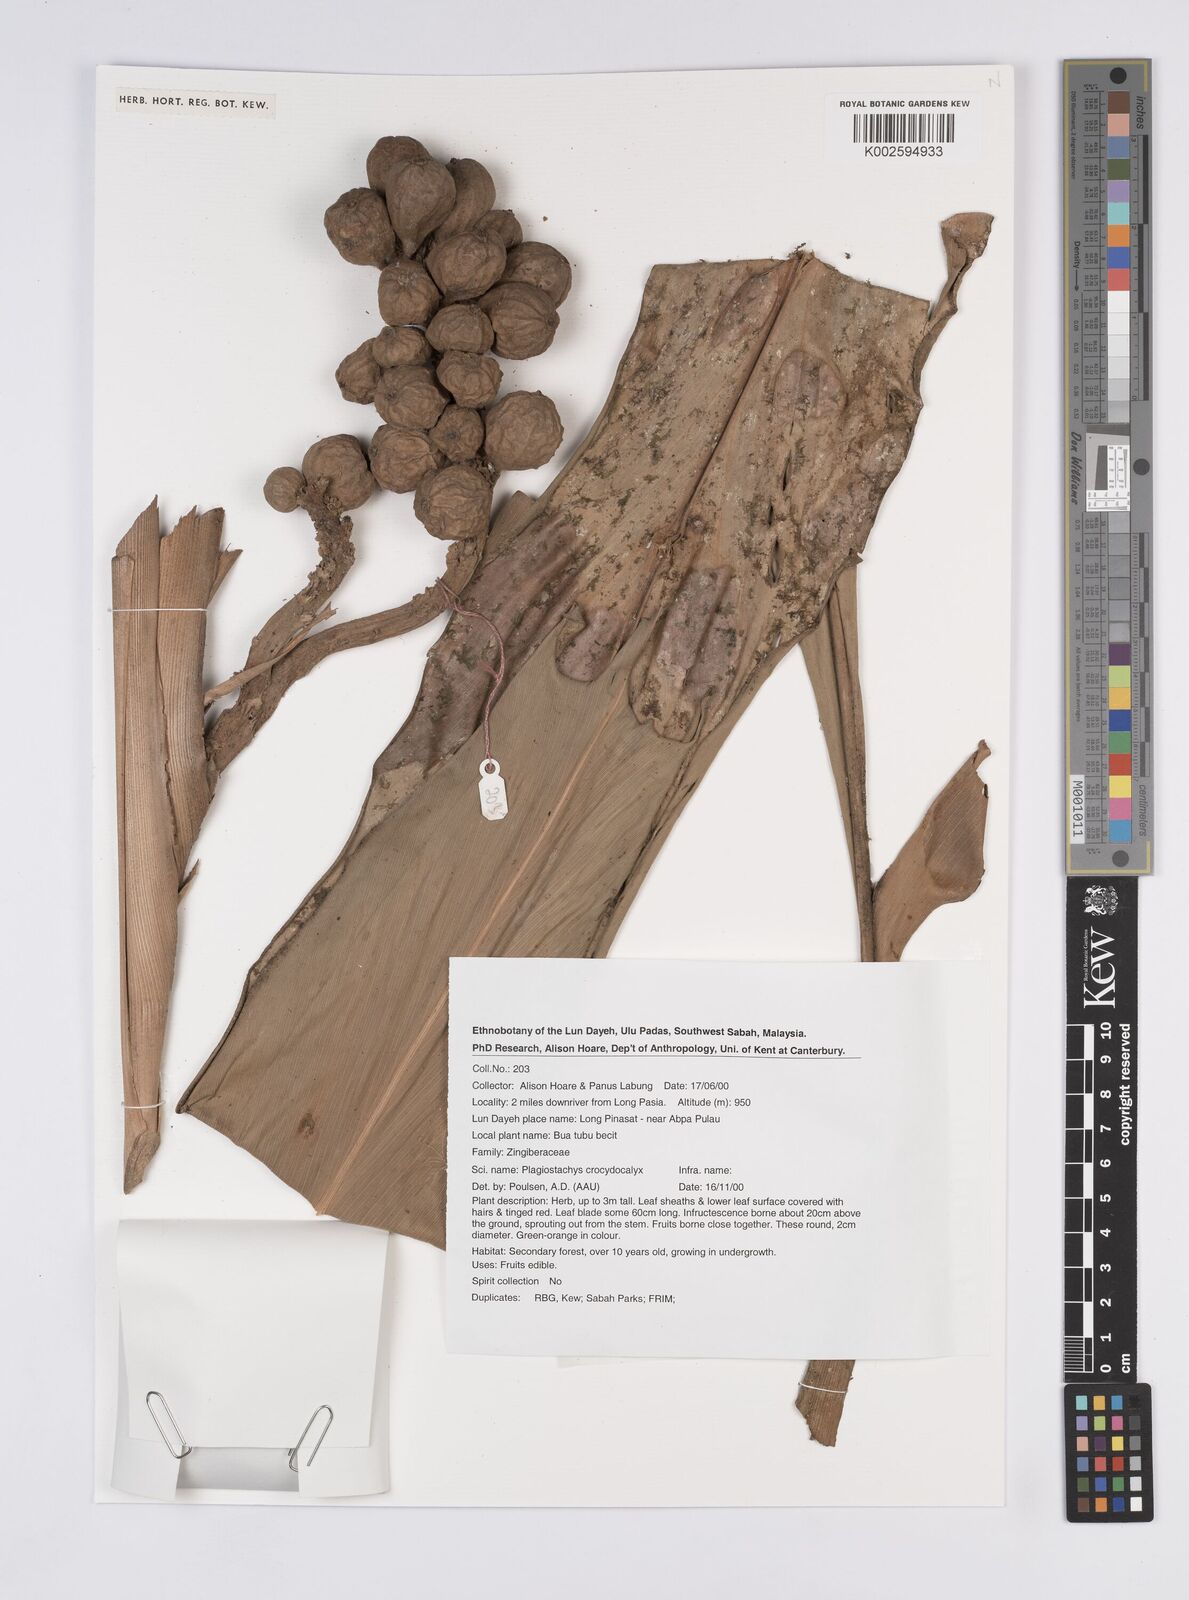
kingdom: Plantae
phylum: Tracheophyta
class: Liliopsida
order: Zingiberales
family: Zingiberaceae
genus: Plagiostachys
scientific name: Plagiostachys crocydocalyx
